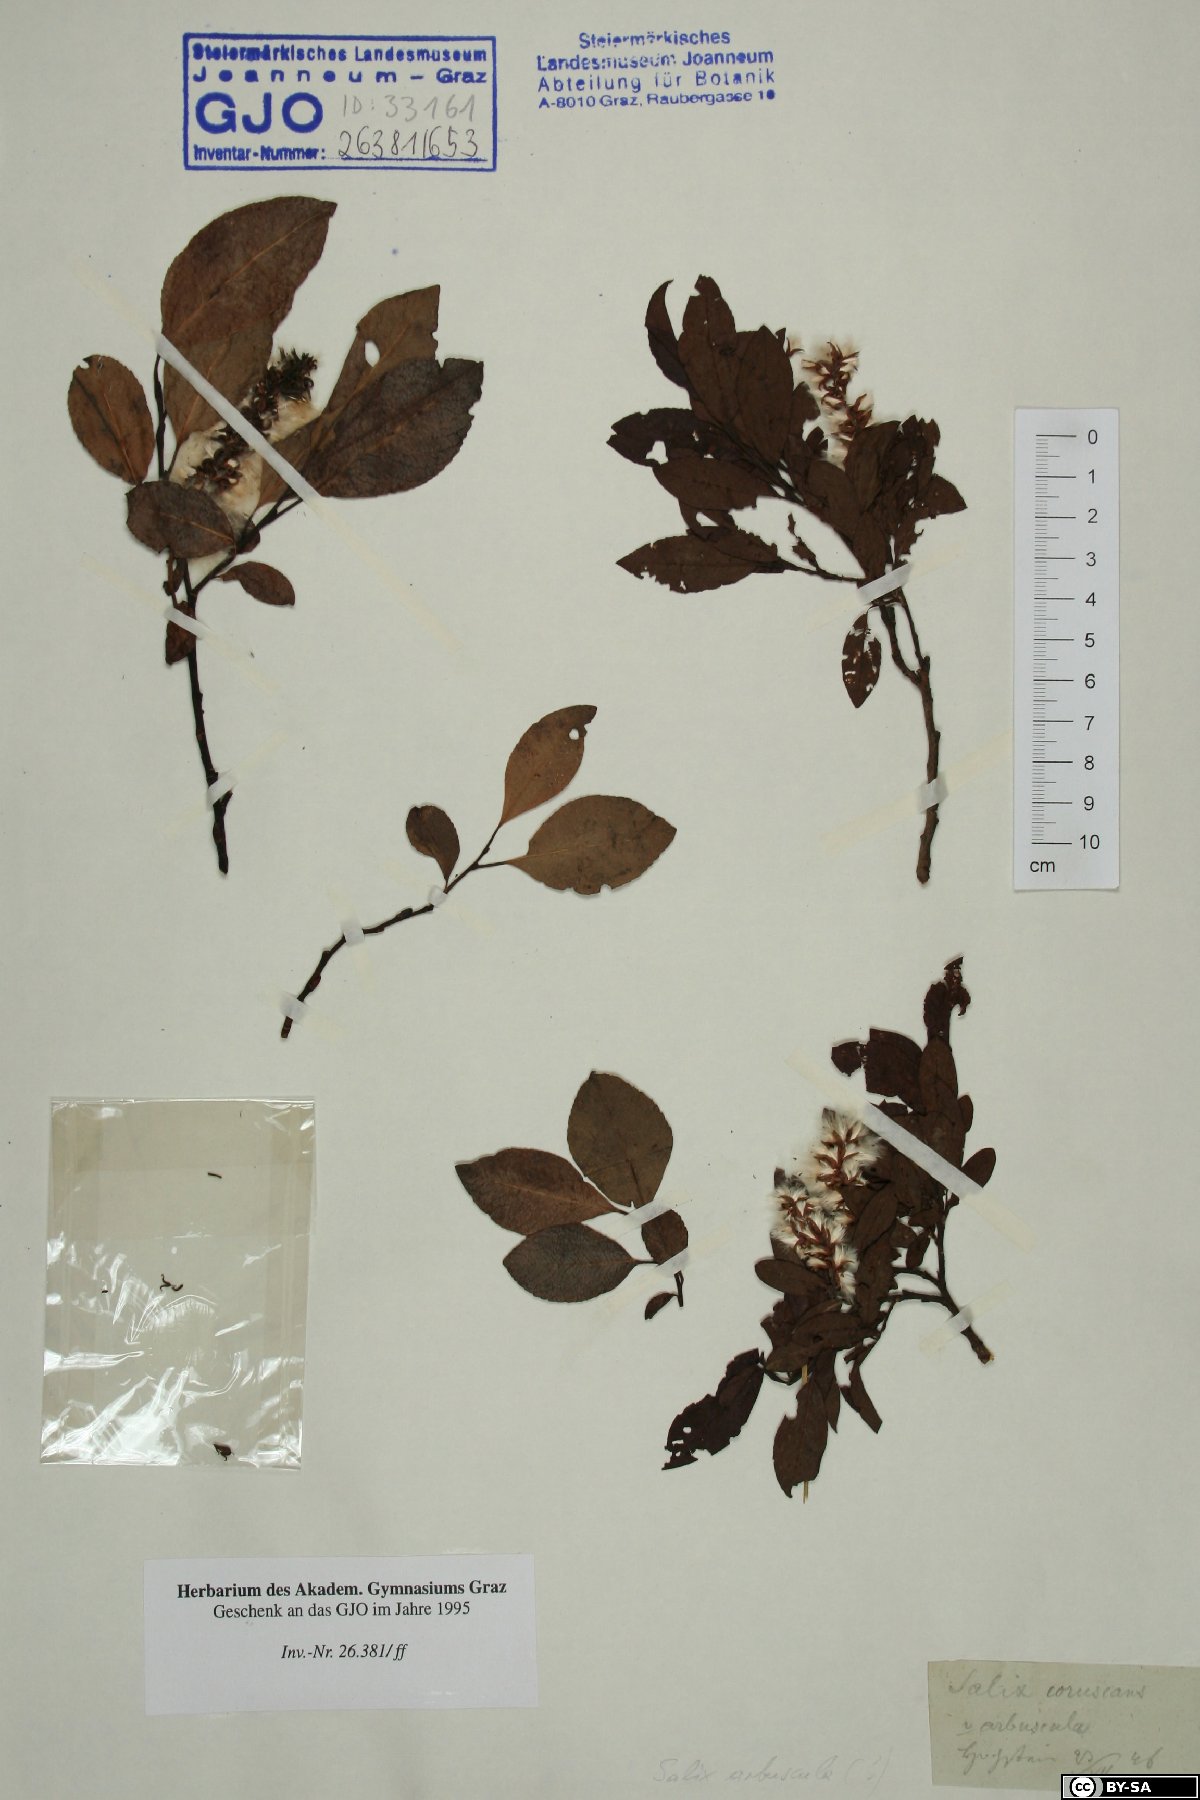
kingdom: Plantae
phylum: Tracheophyta
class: Magnoliopsida
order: Malpighiales
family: Salicaceae
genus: Salix
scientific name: Salix foetida
